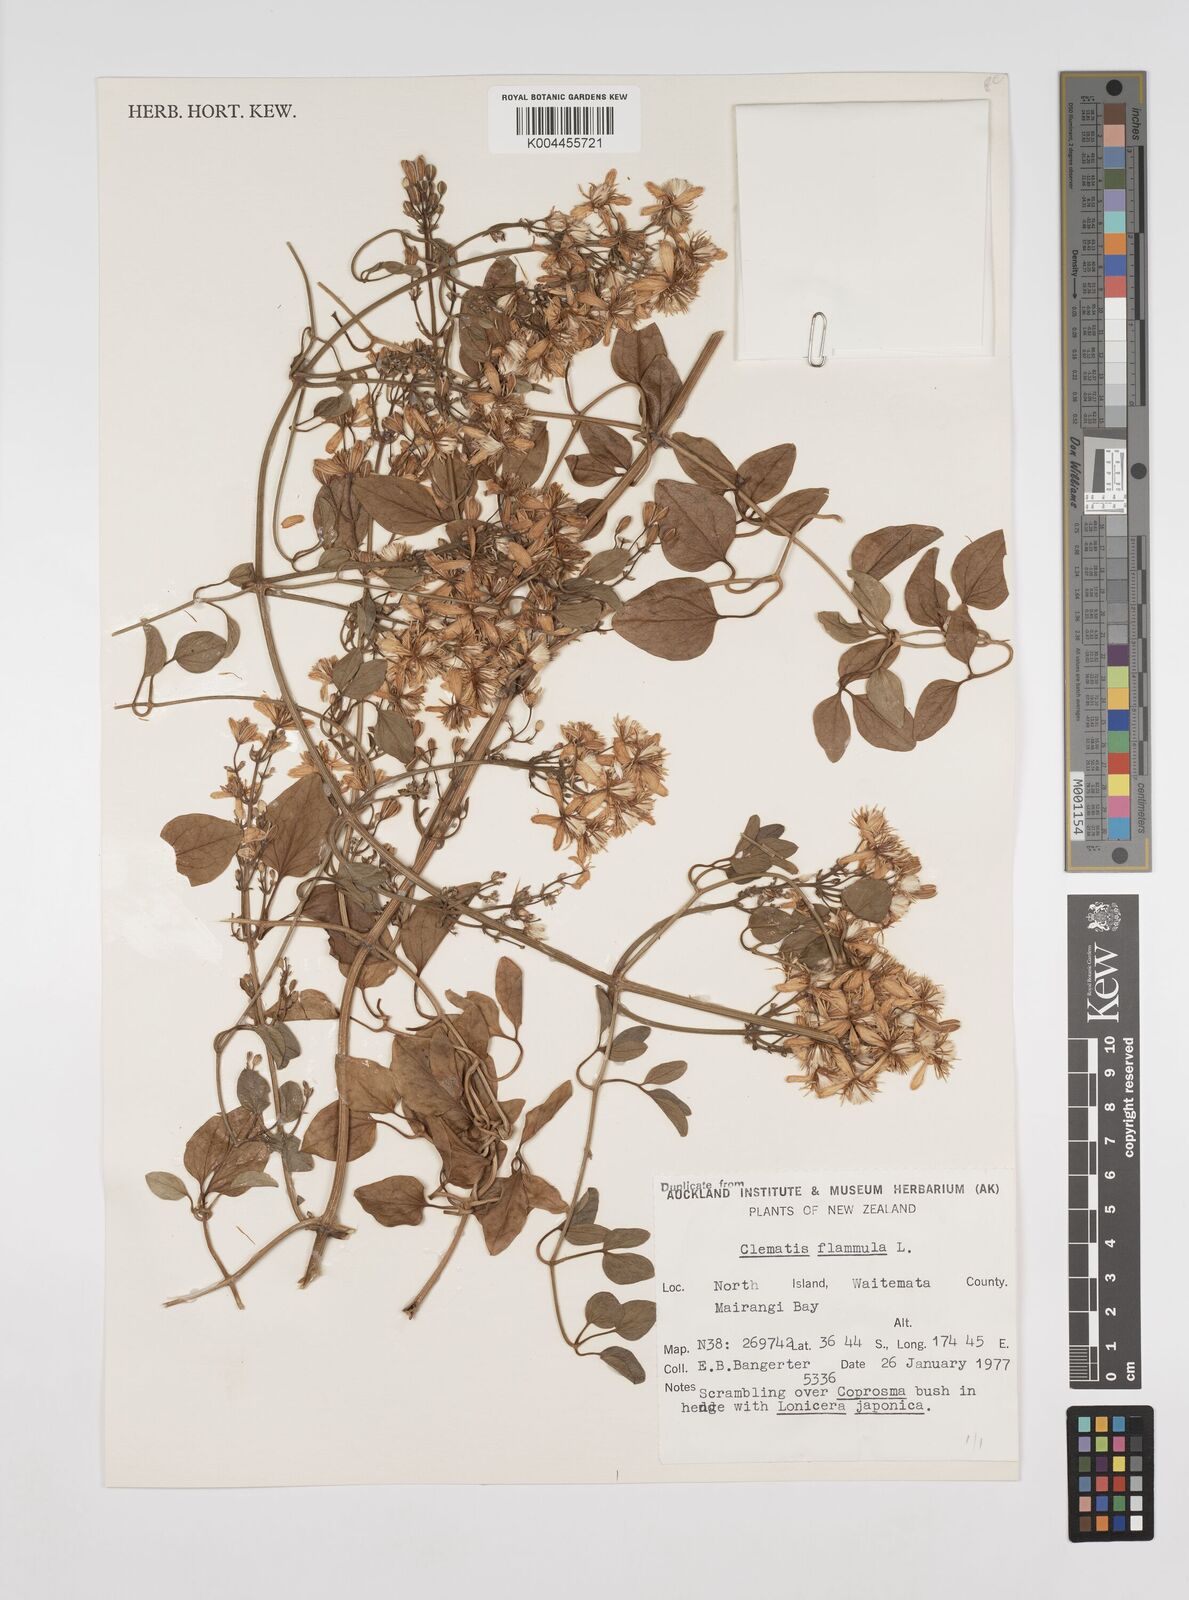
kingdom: Plantae
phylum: Tracheophyta
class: Magnoliopsida
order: Ranunculales
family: Ranunculaceae
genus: Clematis
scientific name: Clematis flammula
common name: Virgin's-bower
